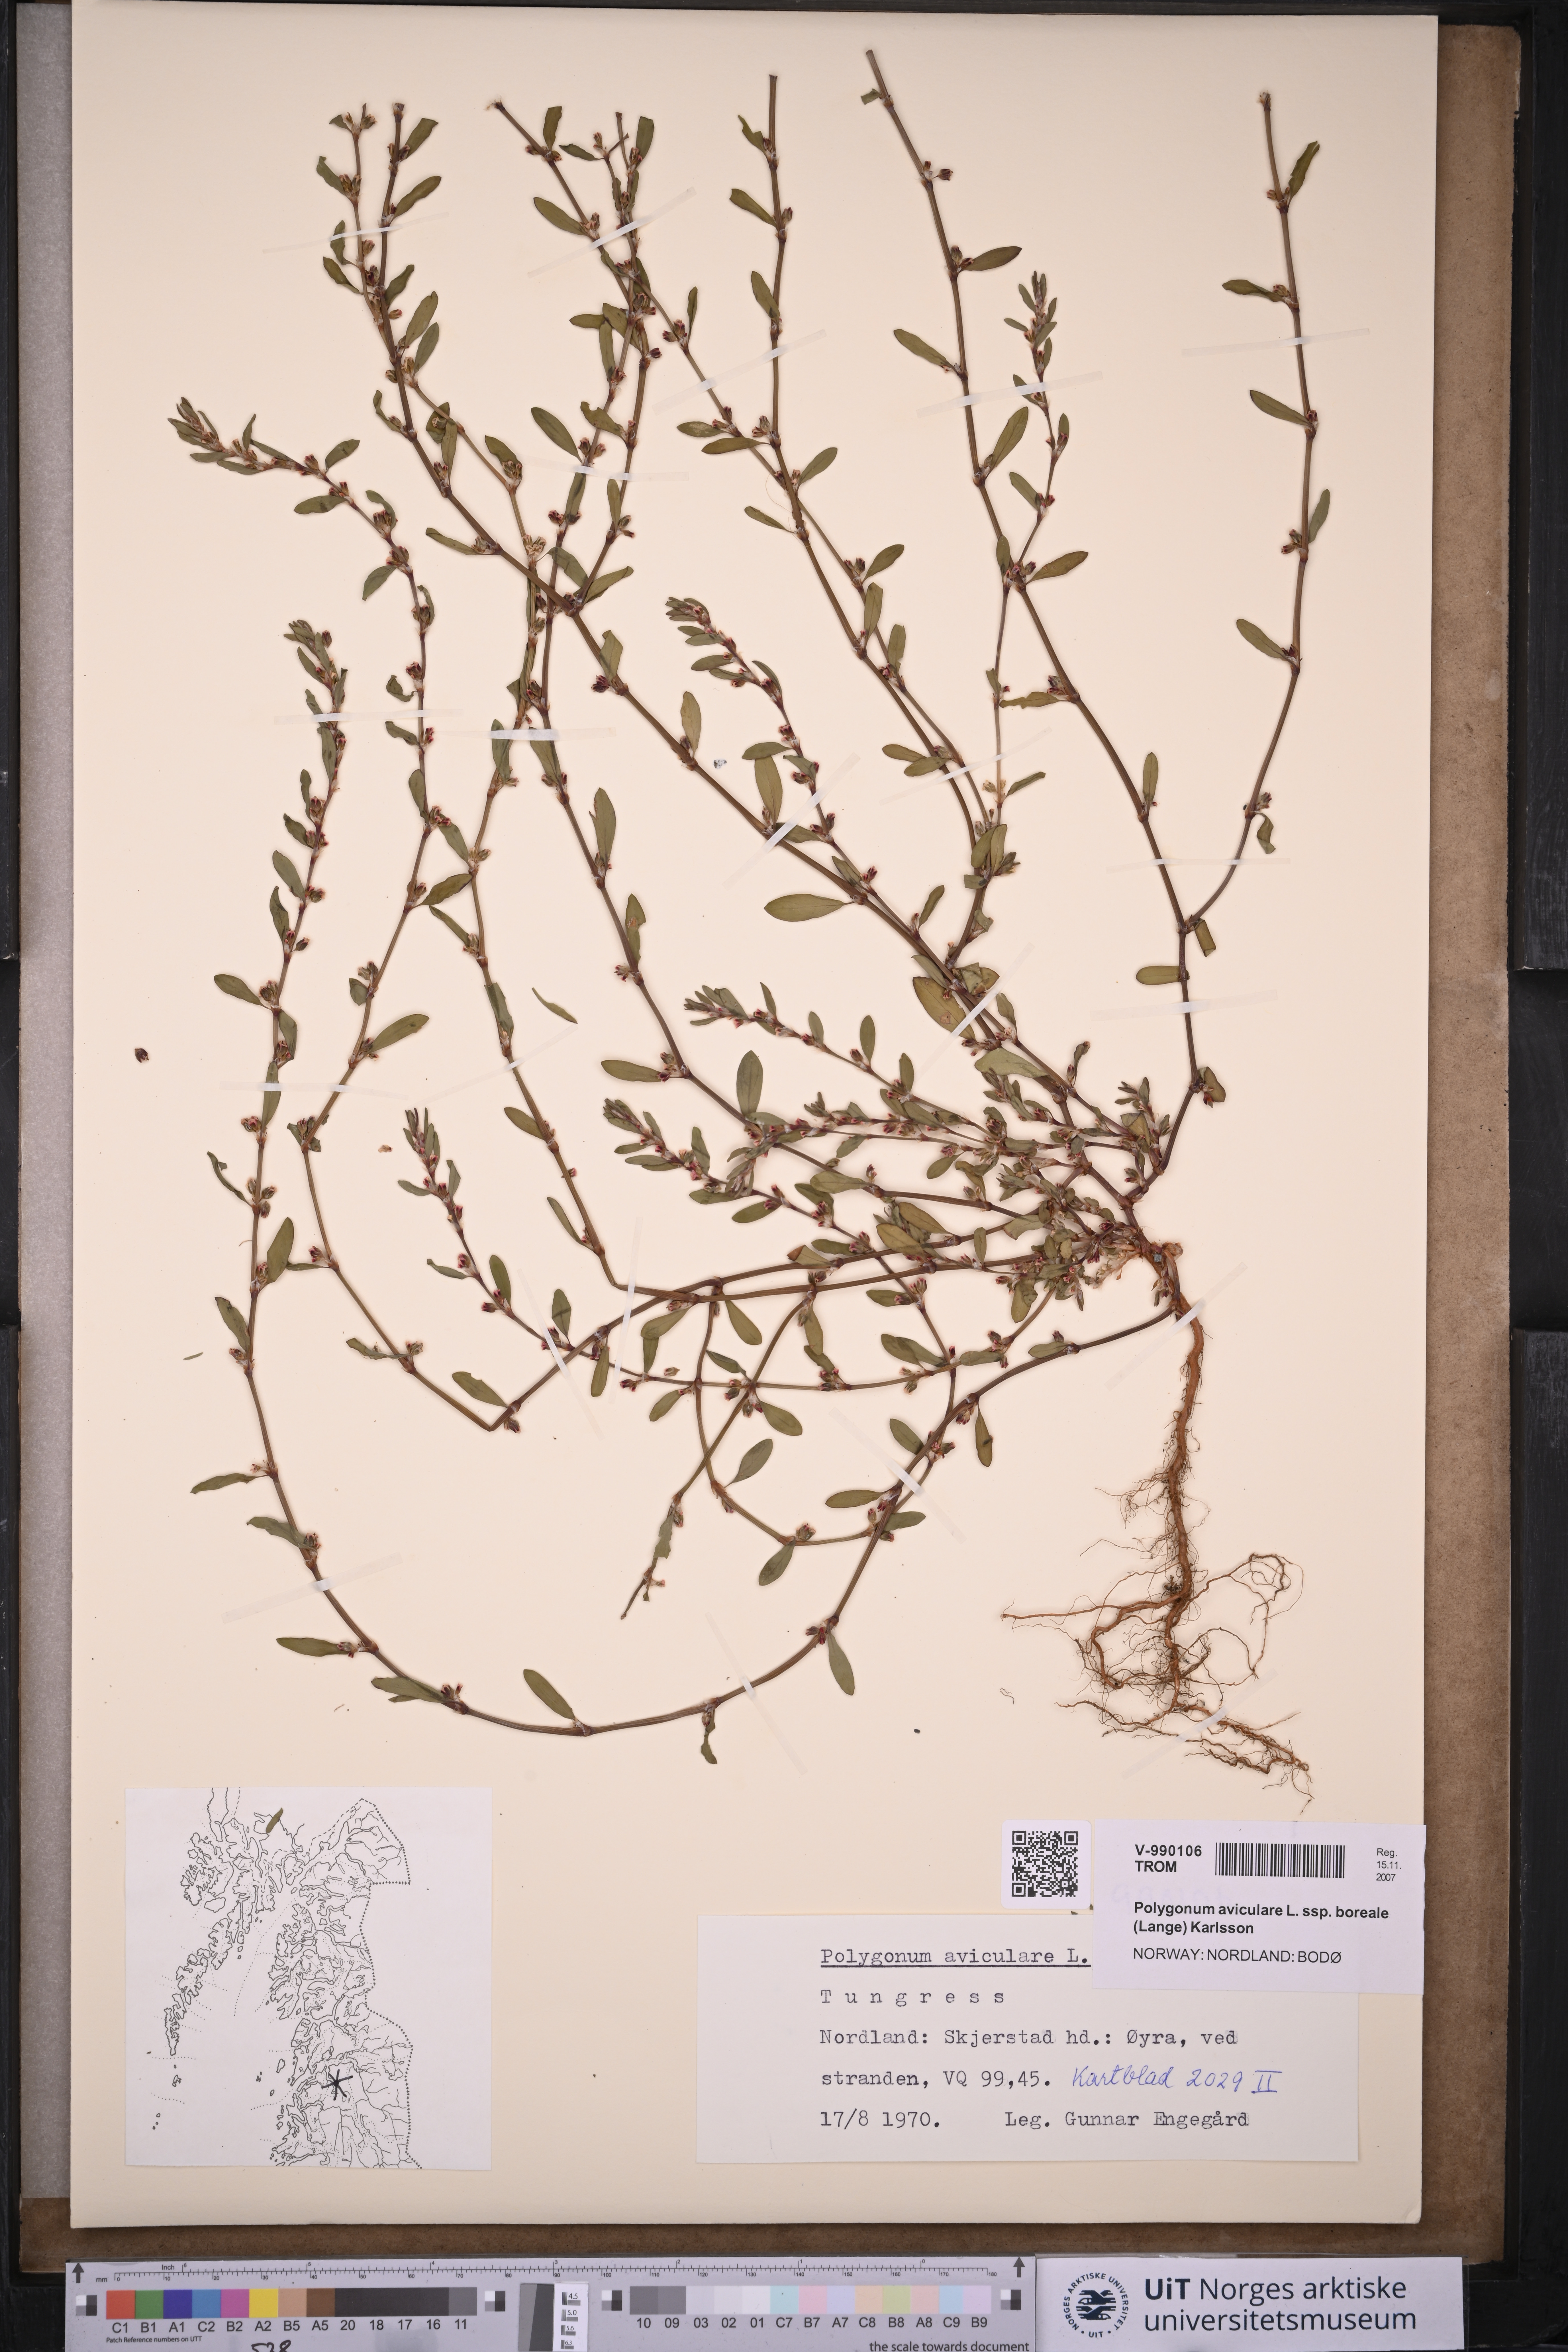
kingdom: Plantae
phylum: Tracheophyta
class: Magnoliopsida
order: Caryophyllales
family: Polygonaceae
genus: Polygonum
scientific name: Polygonum boreale
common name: Northern knotgrass
